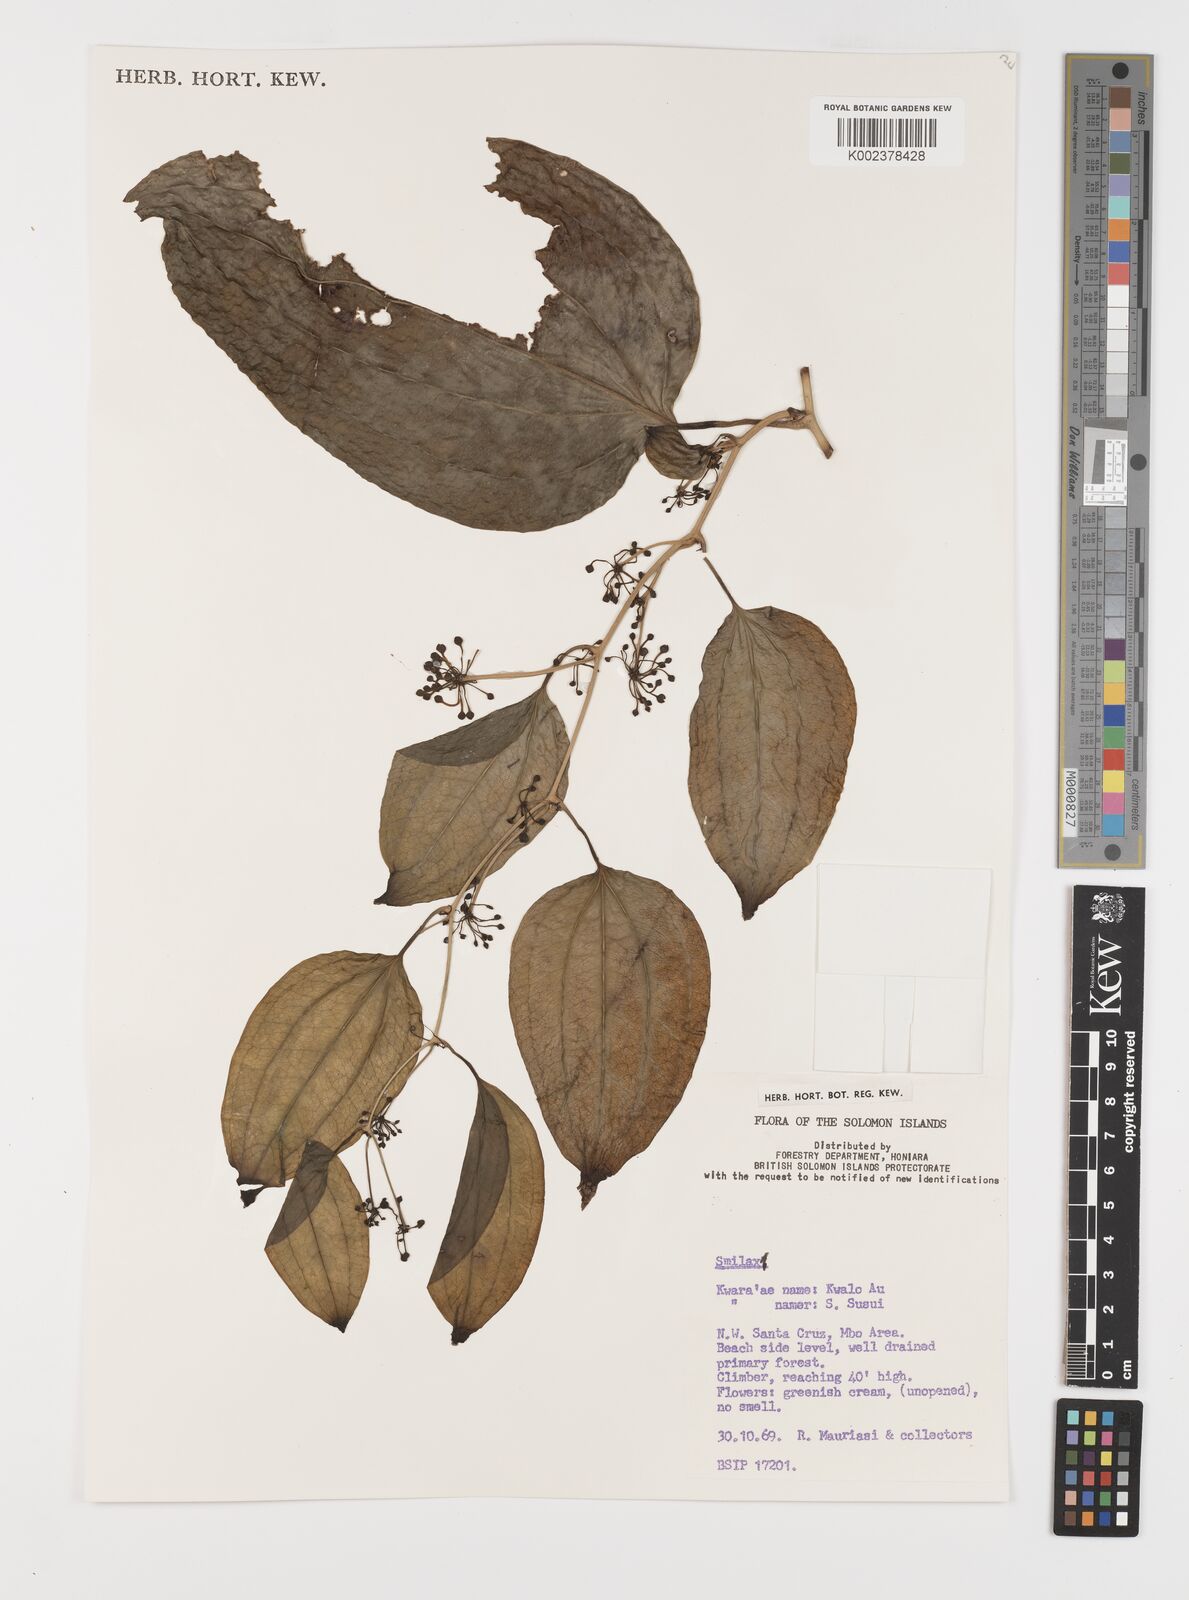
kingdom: Plantae
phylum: Tracheophyta
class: Liliopsida
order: Liliales
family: Smilacaceae
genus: Smilax
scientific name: Smilax
